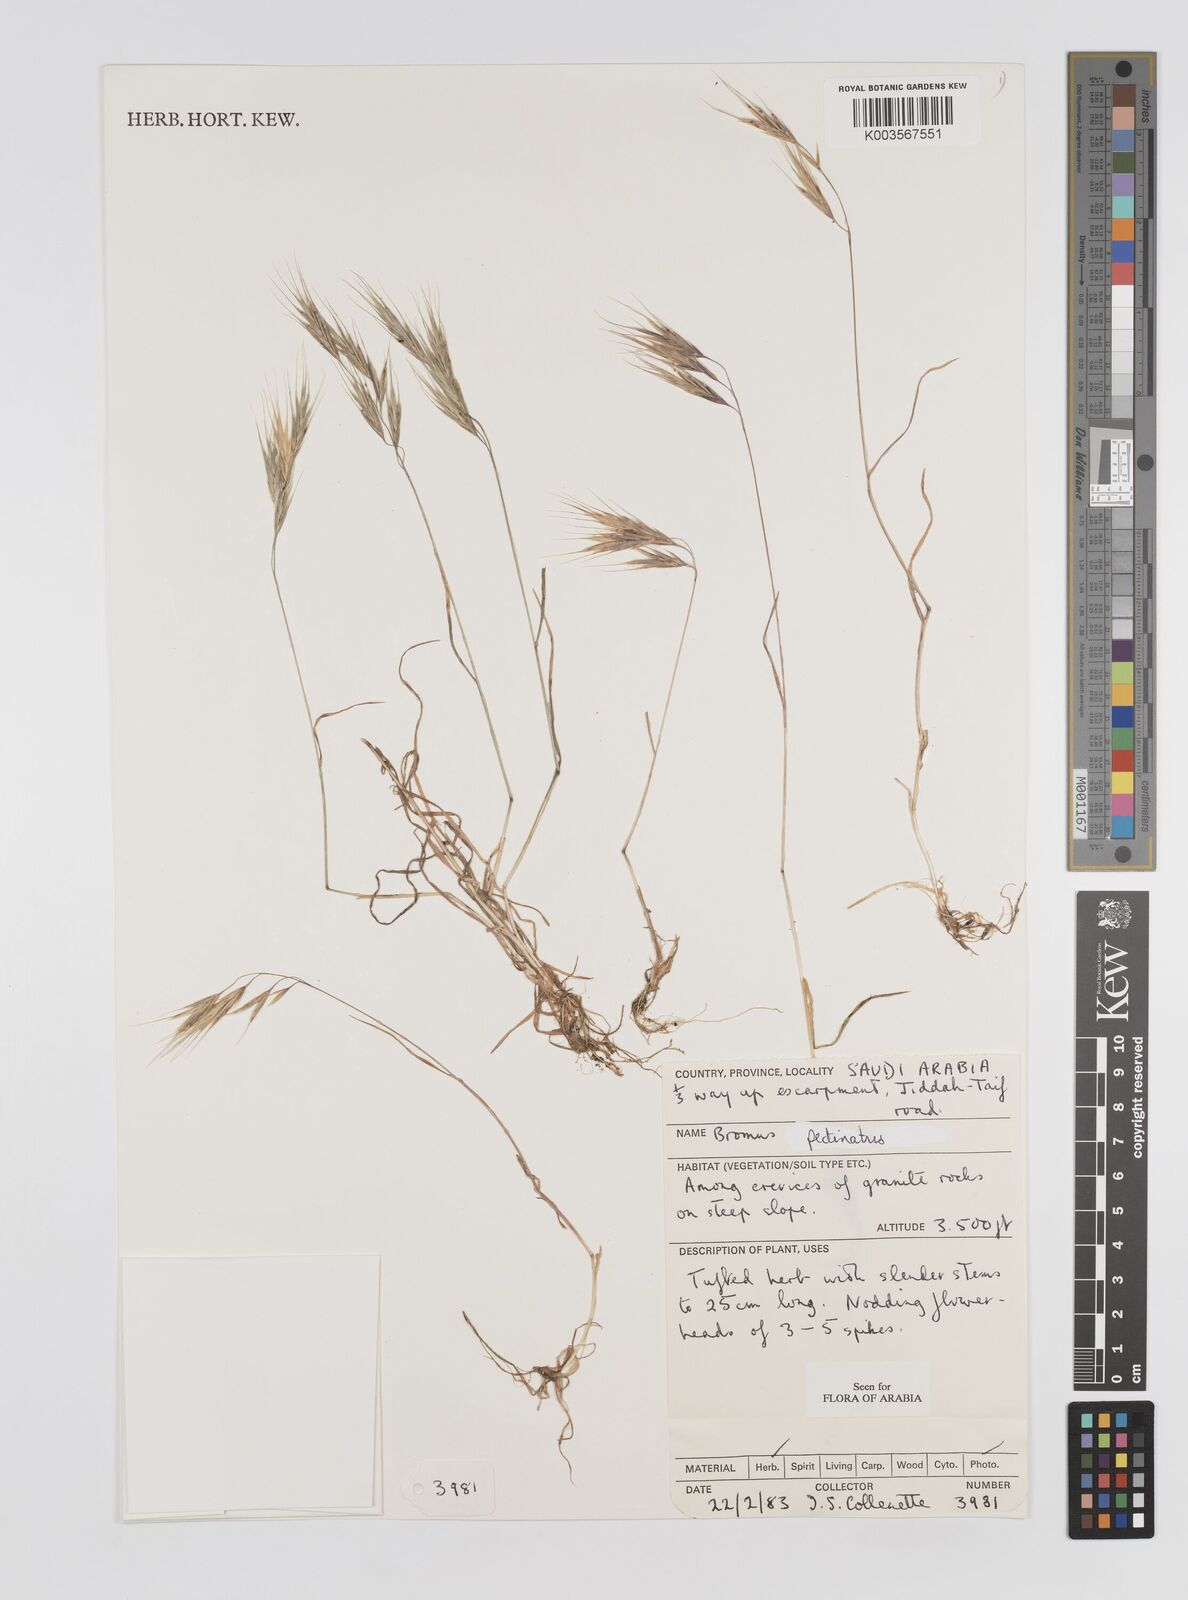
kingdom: Plantae
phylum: Tracheophyta
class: Liliopsida
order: Poales
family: Poaceae
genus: Bromus
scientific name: Bromus pectinatus
